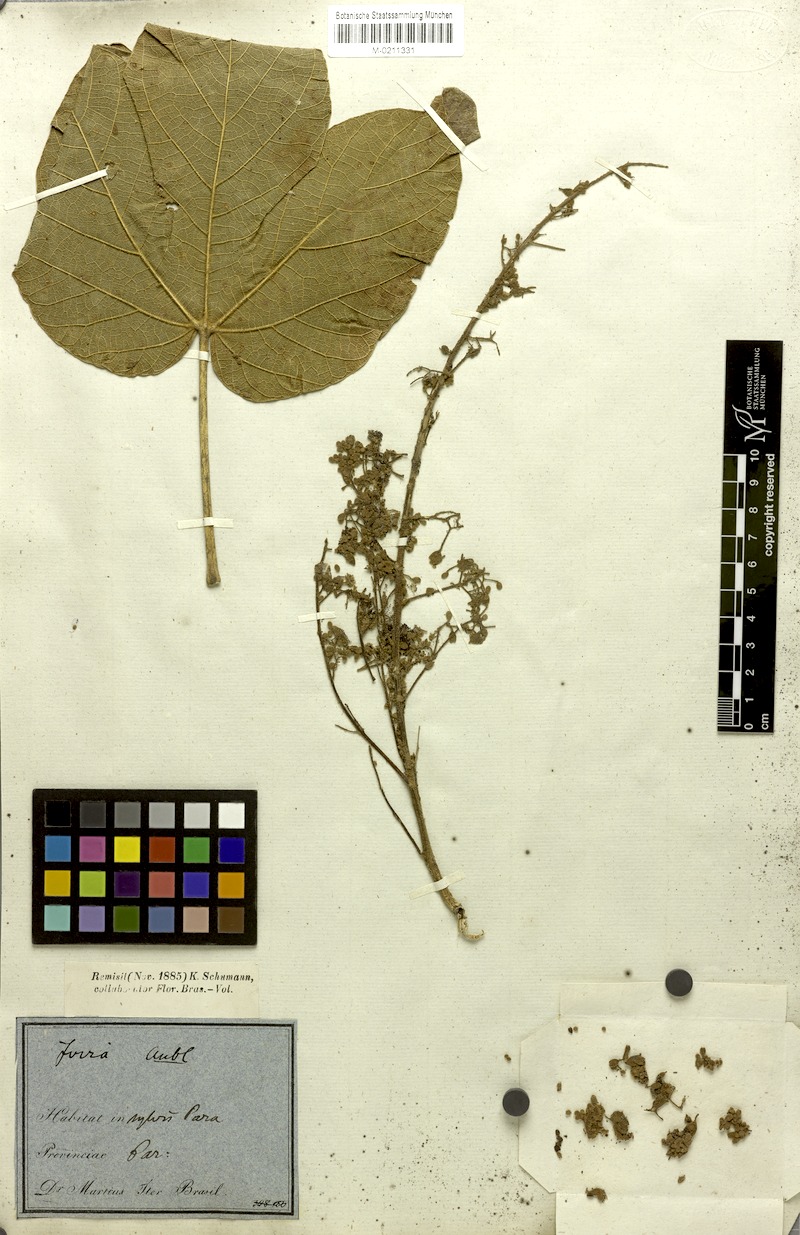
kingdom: Plantae
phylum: Tracheophyta
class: Magnoliopsida
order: Malvales
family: Malvaceae
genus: Sterculia
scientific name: Sterculia striata
